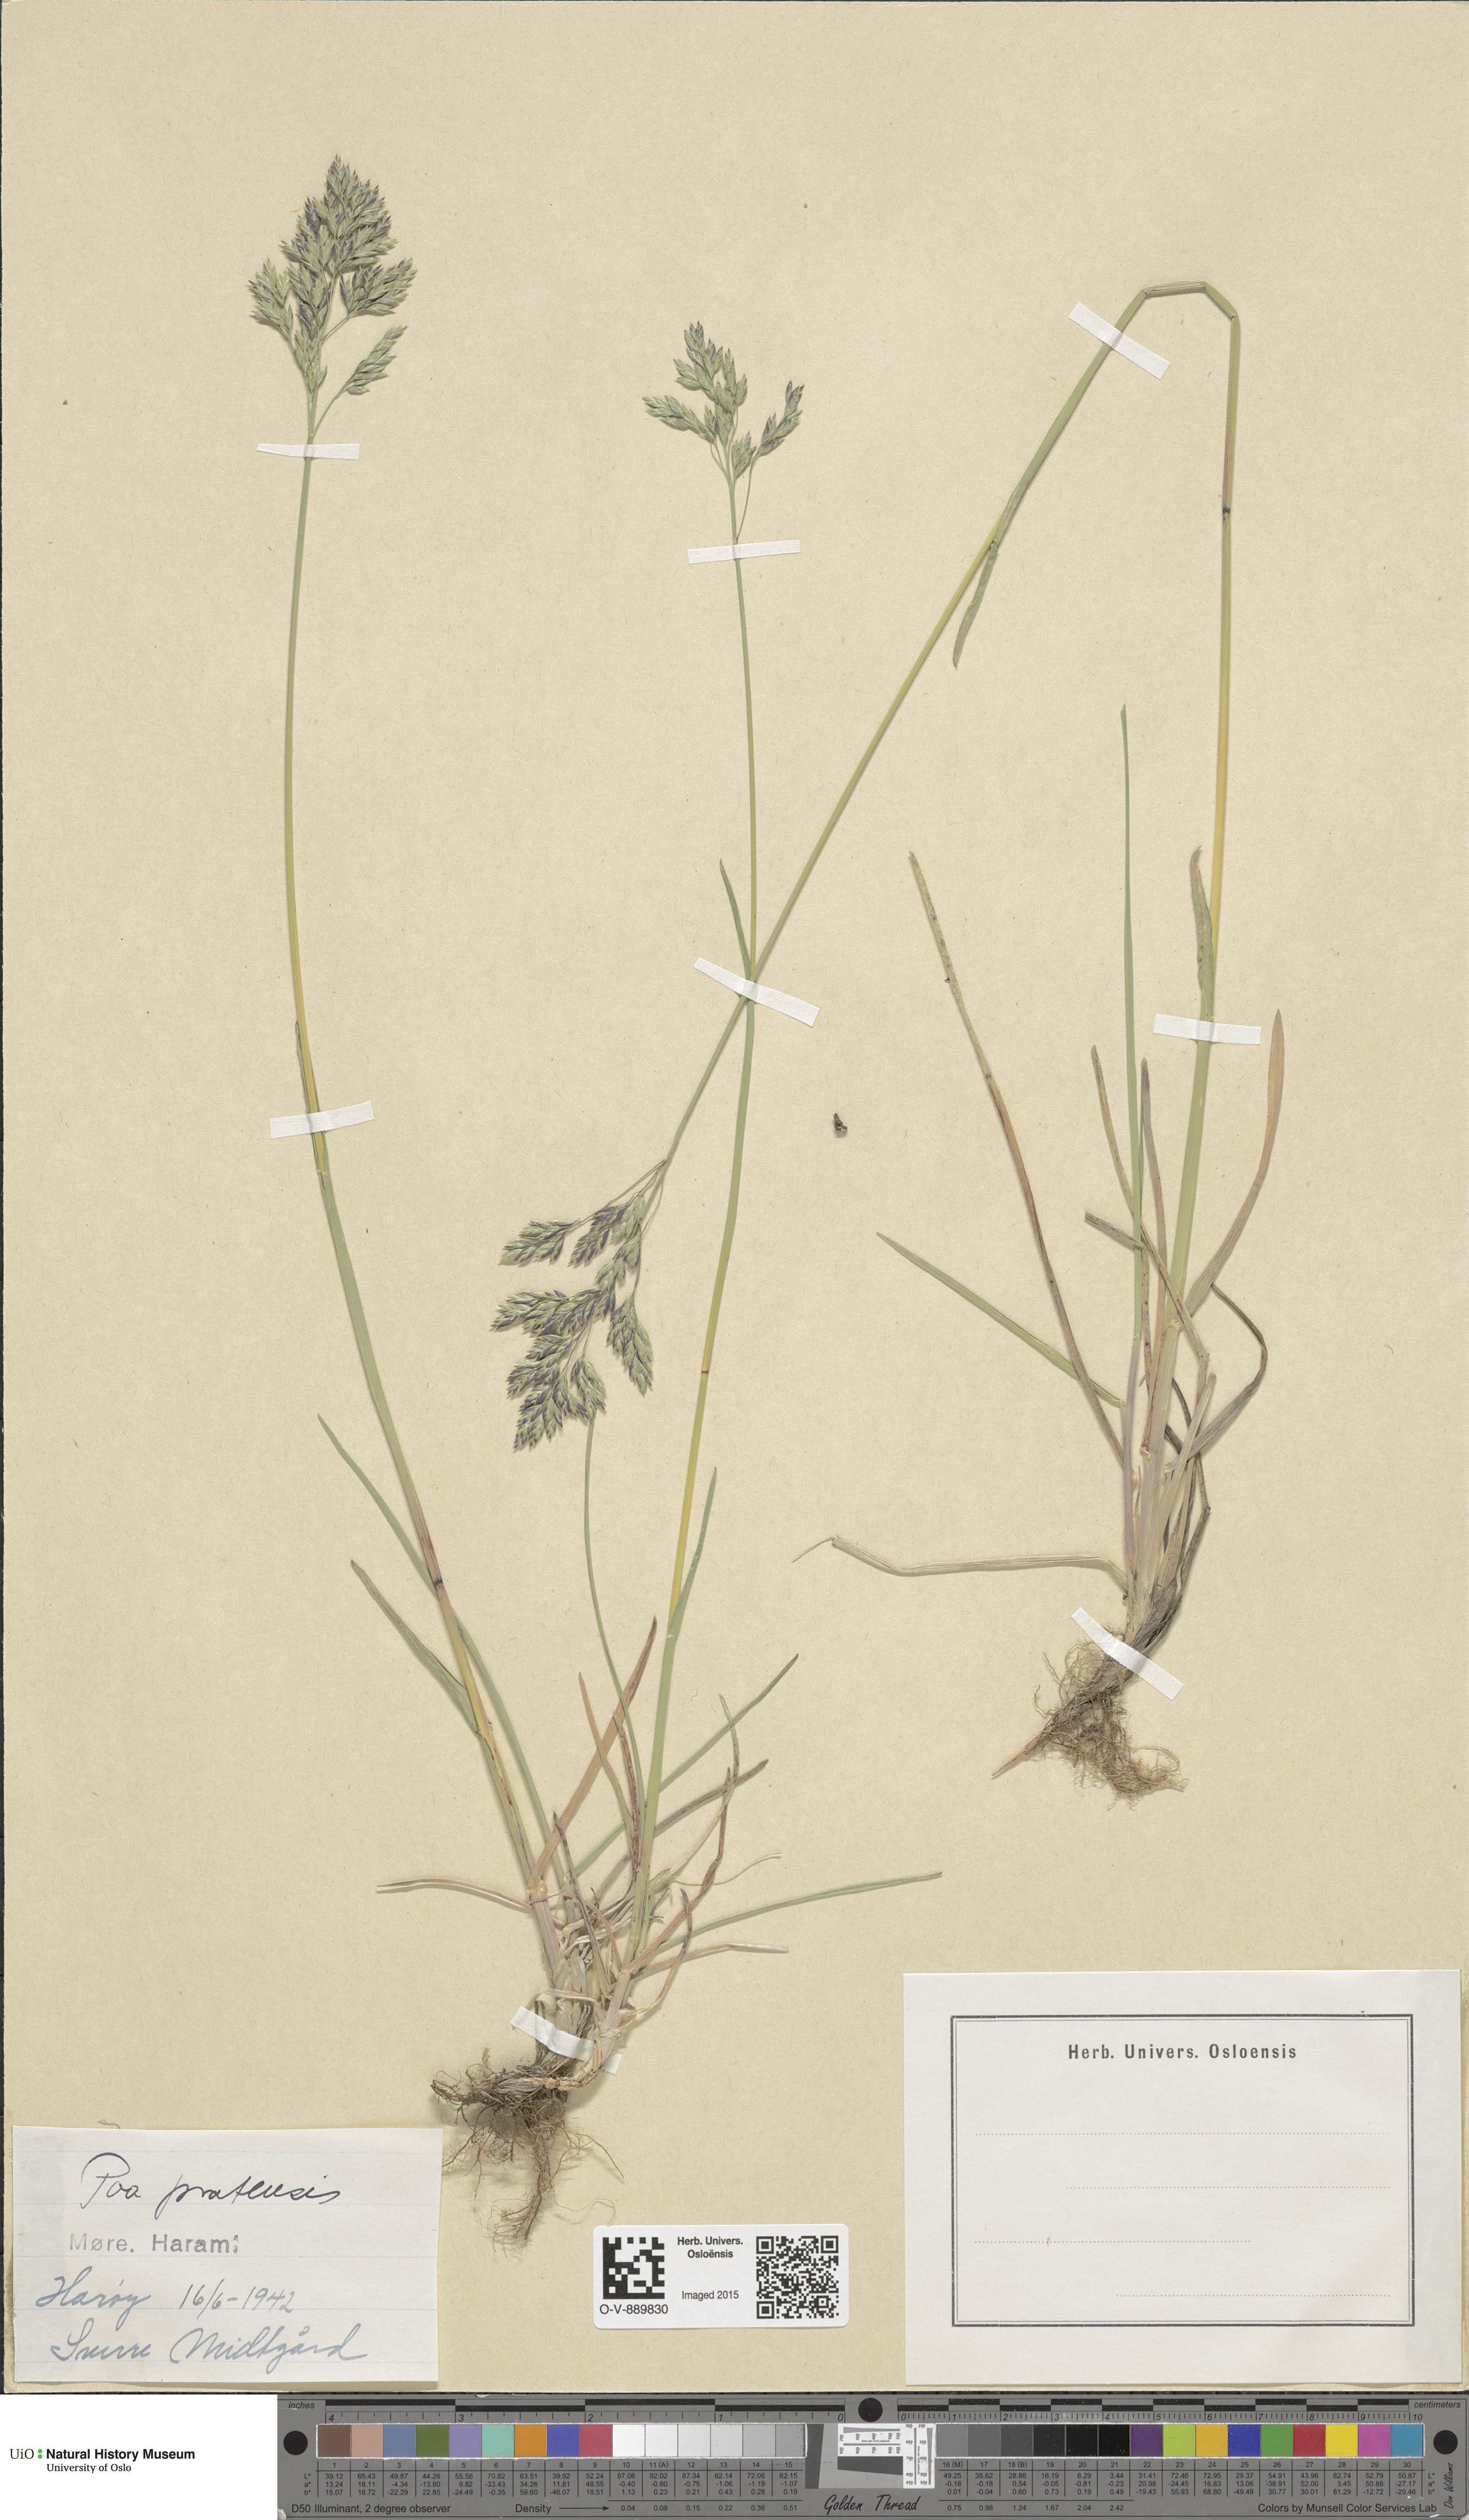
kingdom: Plantae
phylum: Tracheophyta
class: Liliopsida
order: Poales
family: Poaceae
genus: Poa
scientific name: Poa pratensis
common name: Kentucky bluegrass
